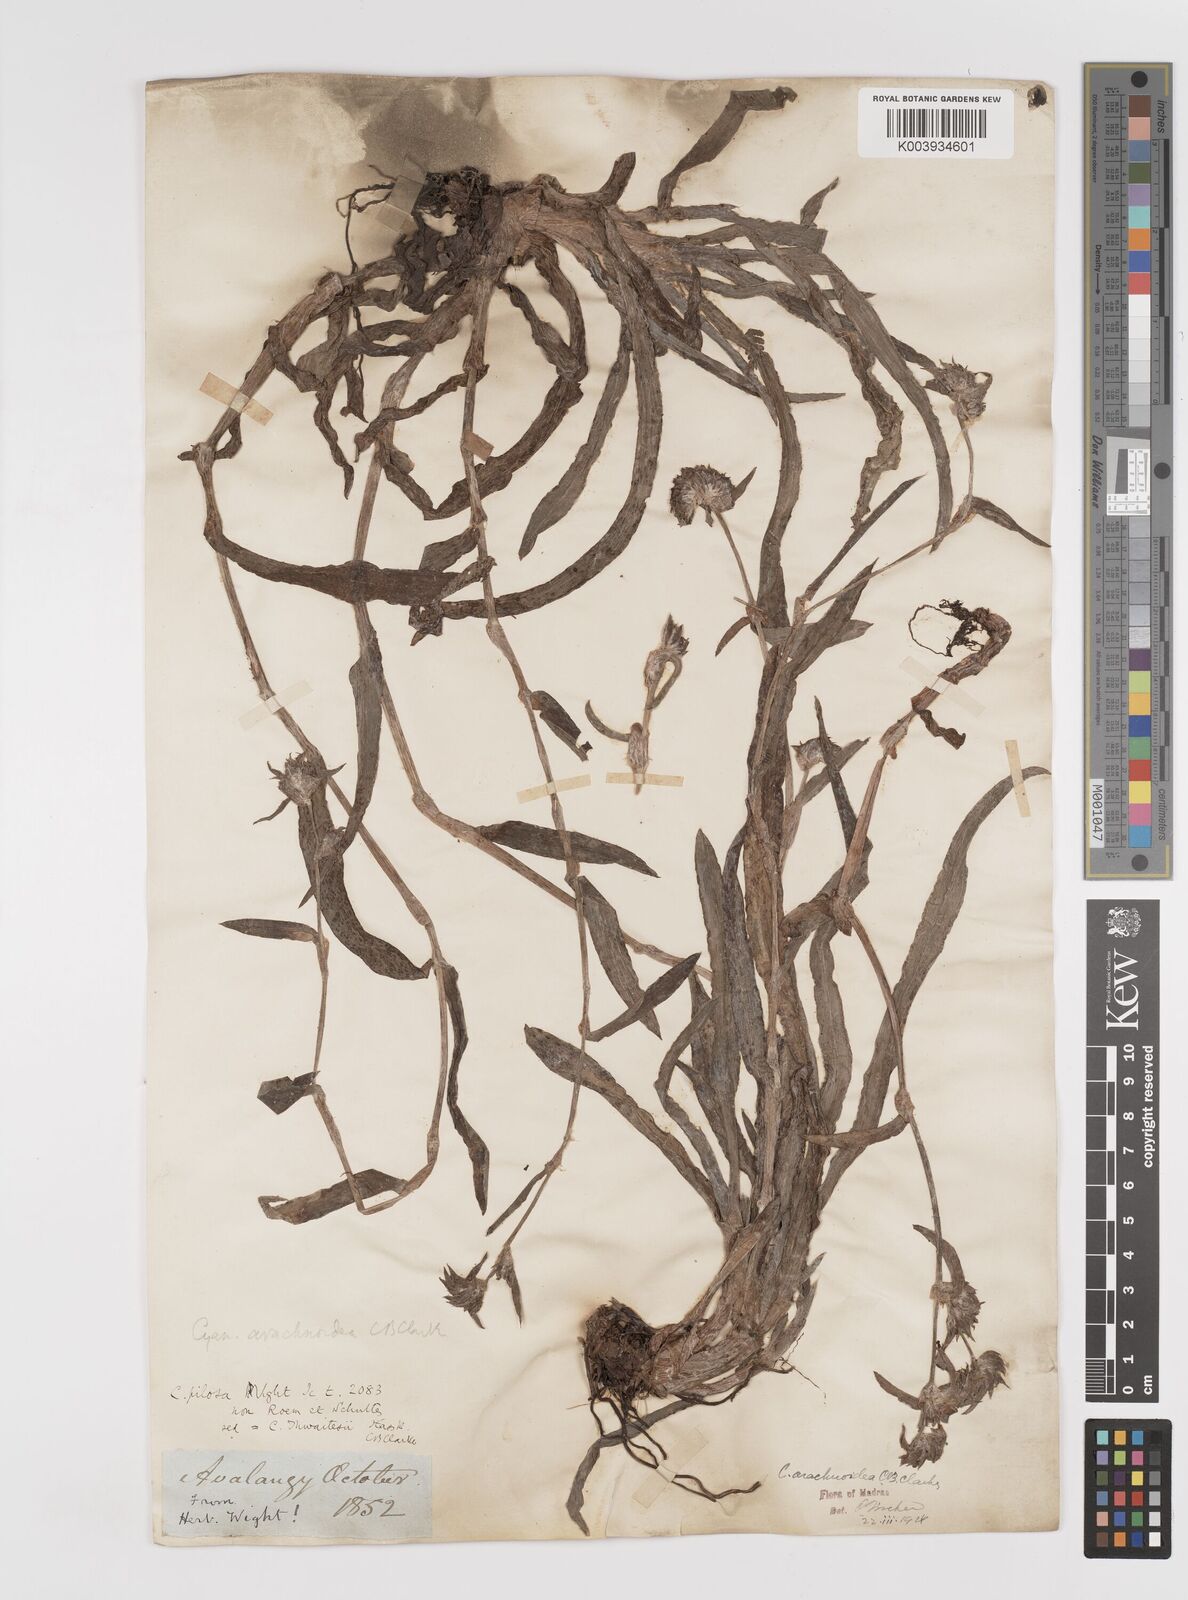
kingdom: Plantae
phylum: Tracheophyta
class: Liliopsida
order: Commelinales
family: Commelinaceae
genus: Cyanotis
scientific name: Cyanotis arachnoidea
